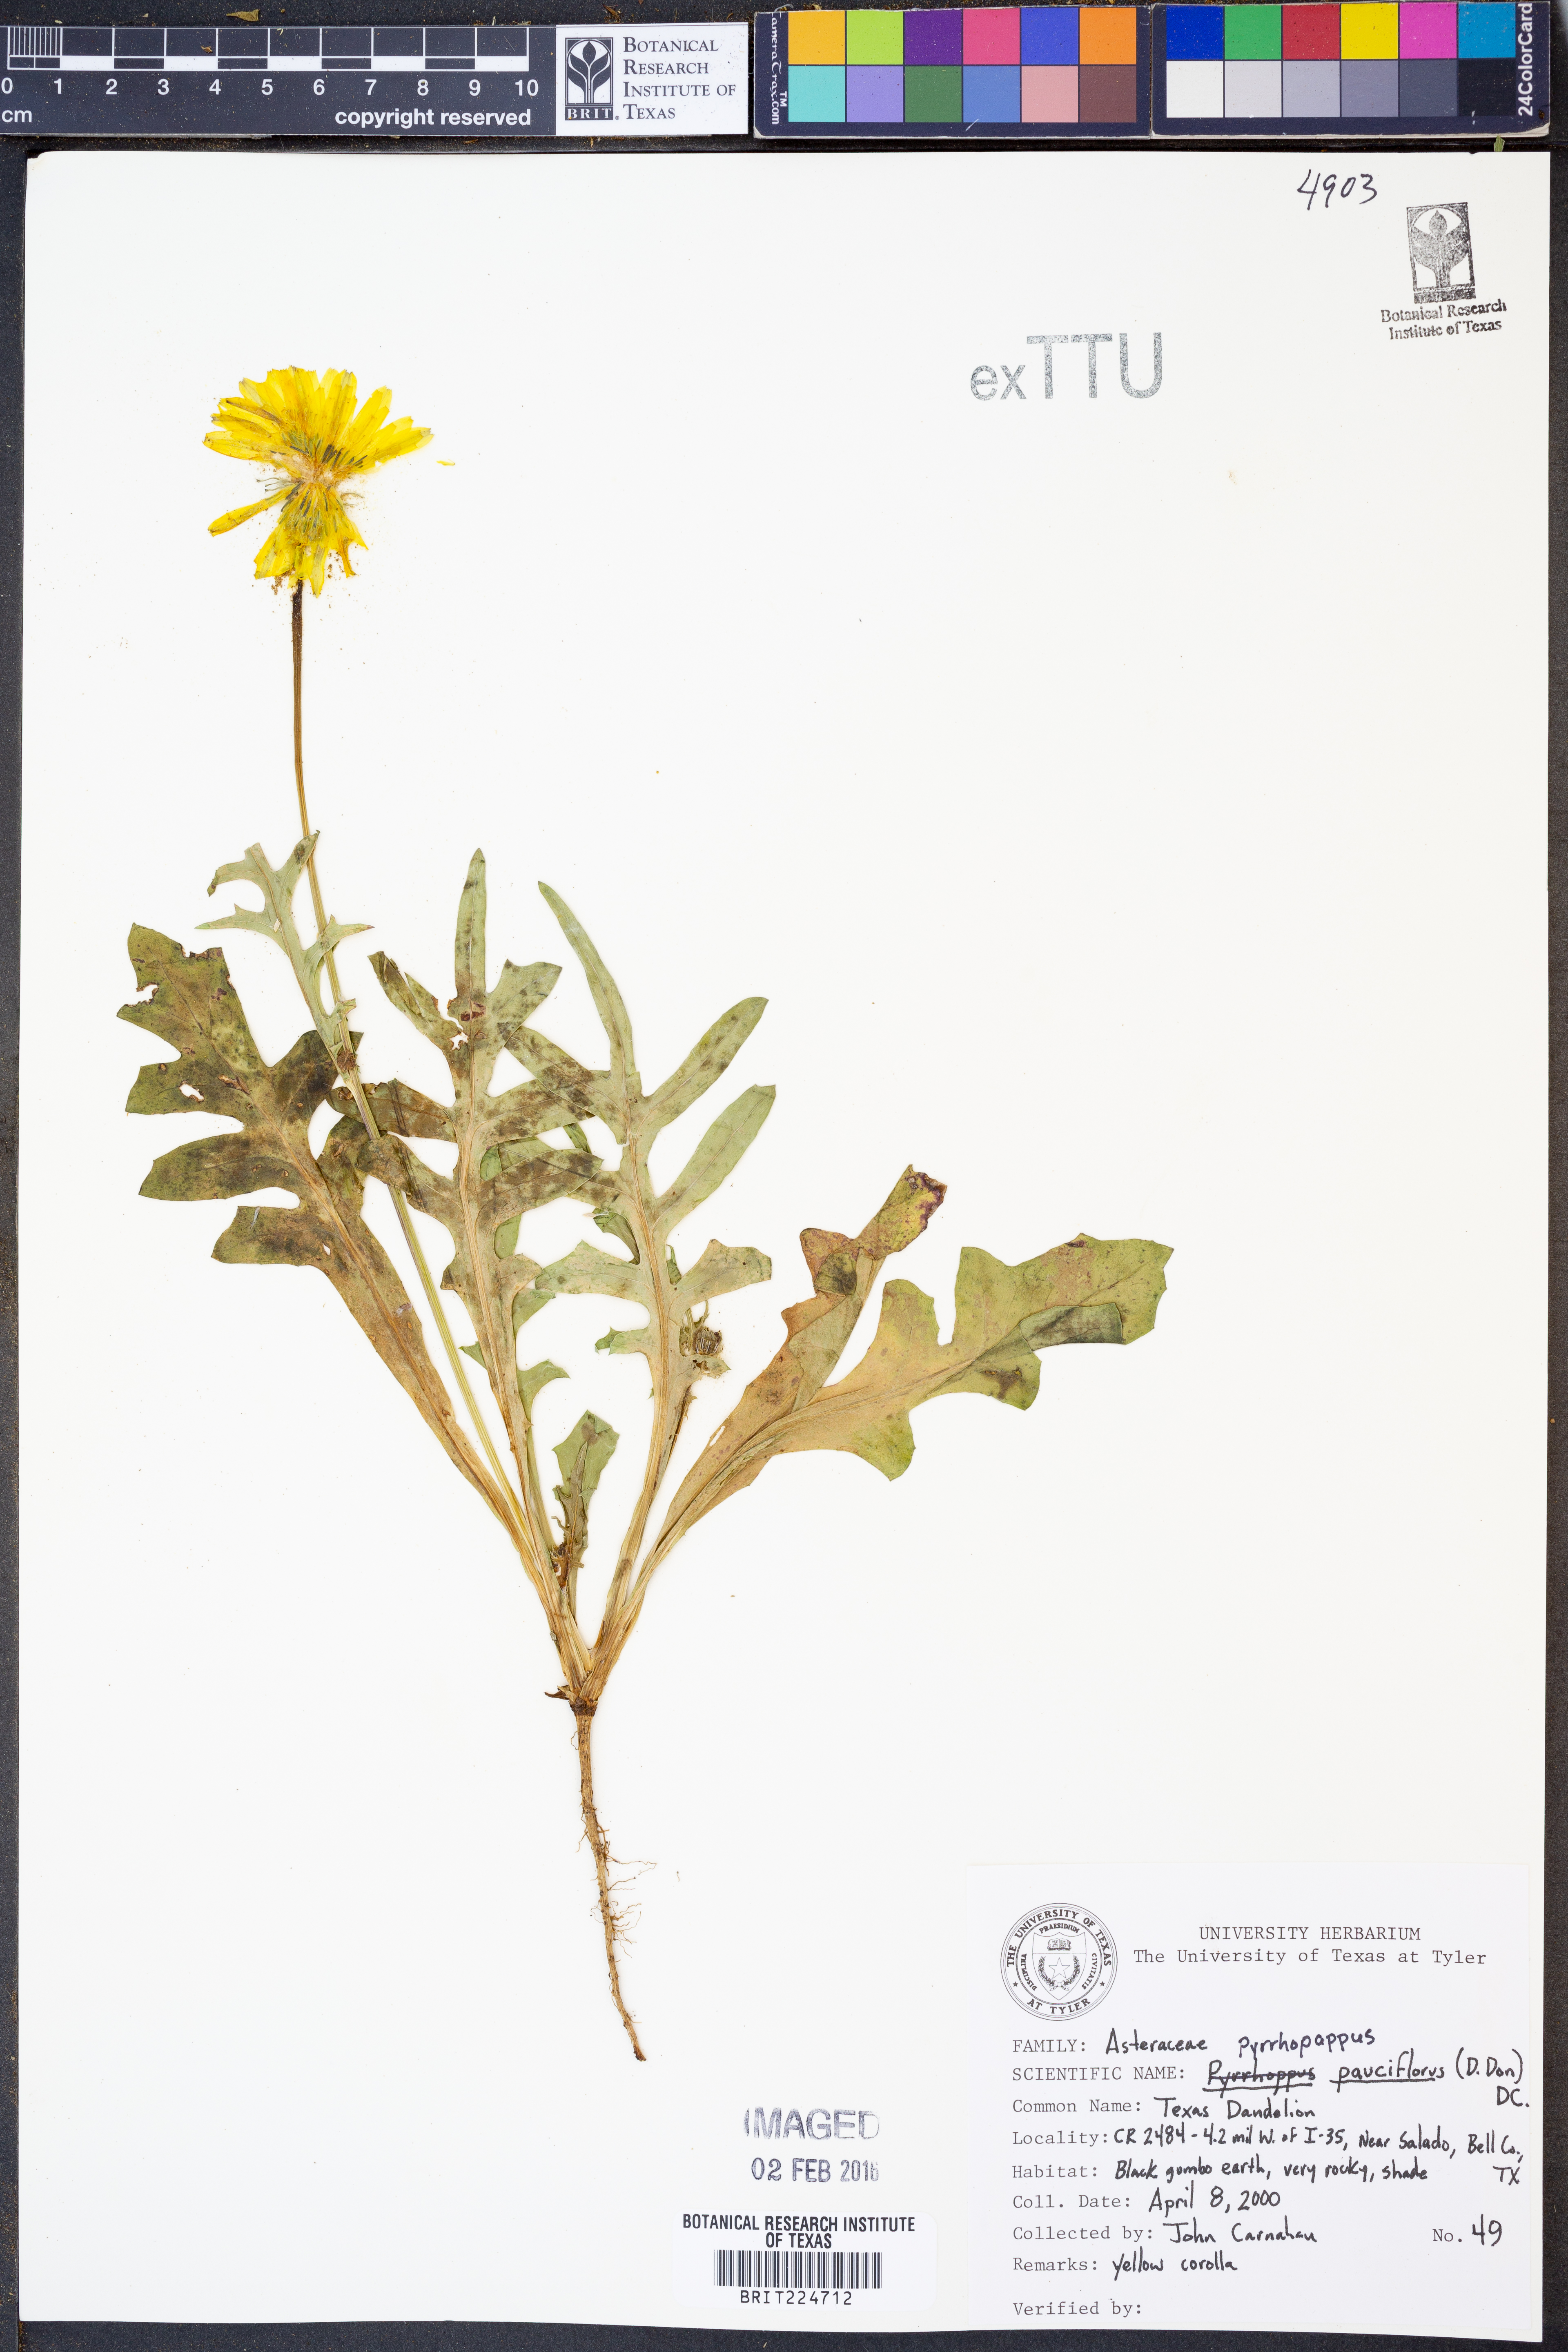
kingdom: Plantae
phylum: Tracheophyta
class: Magnoliopsida
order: Asterales
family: Asteraceae
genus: Pyrrhopappus
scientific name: Pyrrhopappus pauciflorus
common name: Texas false dandelion
